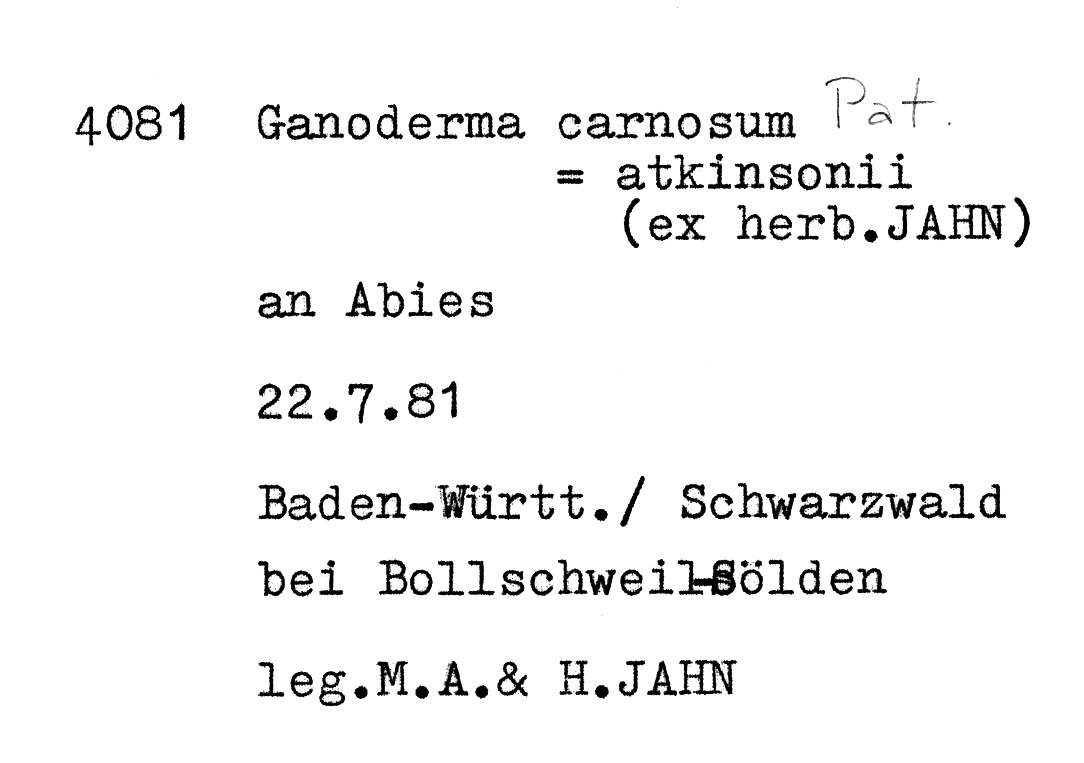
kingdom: Plantae
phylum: Tracheophyta
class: Pinopsida
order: Pinales
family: Pinaceae
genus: Abies
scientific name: Abies
